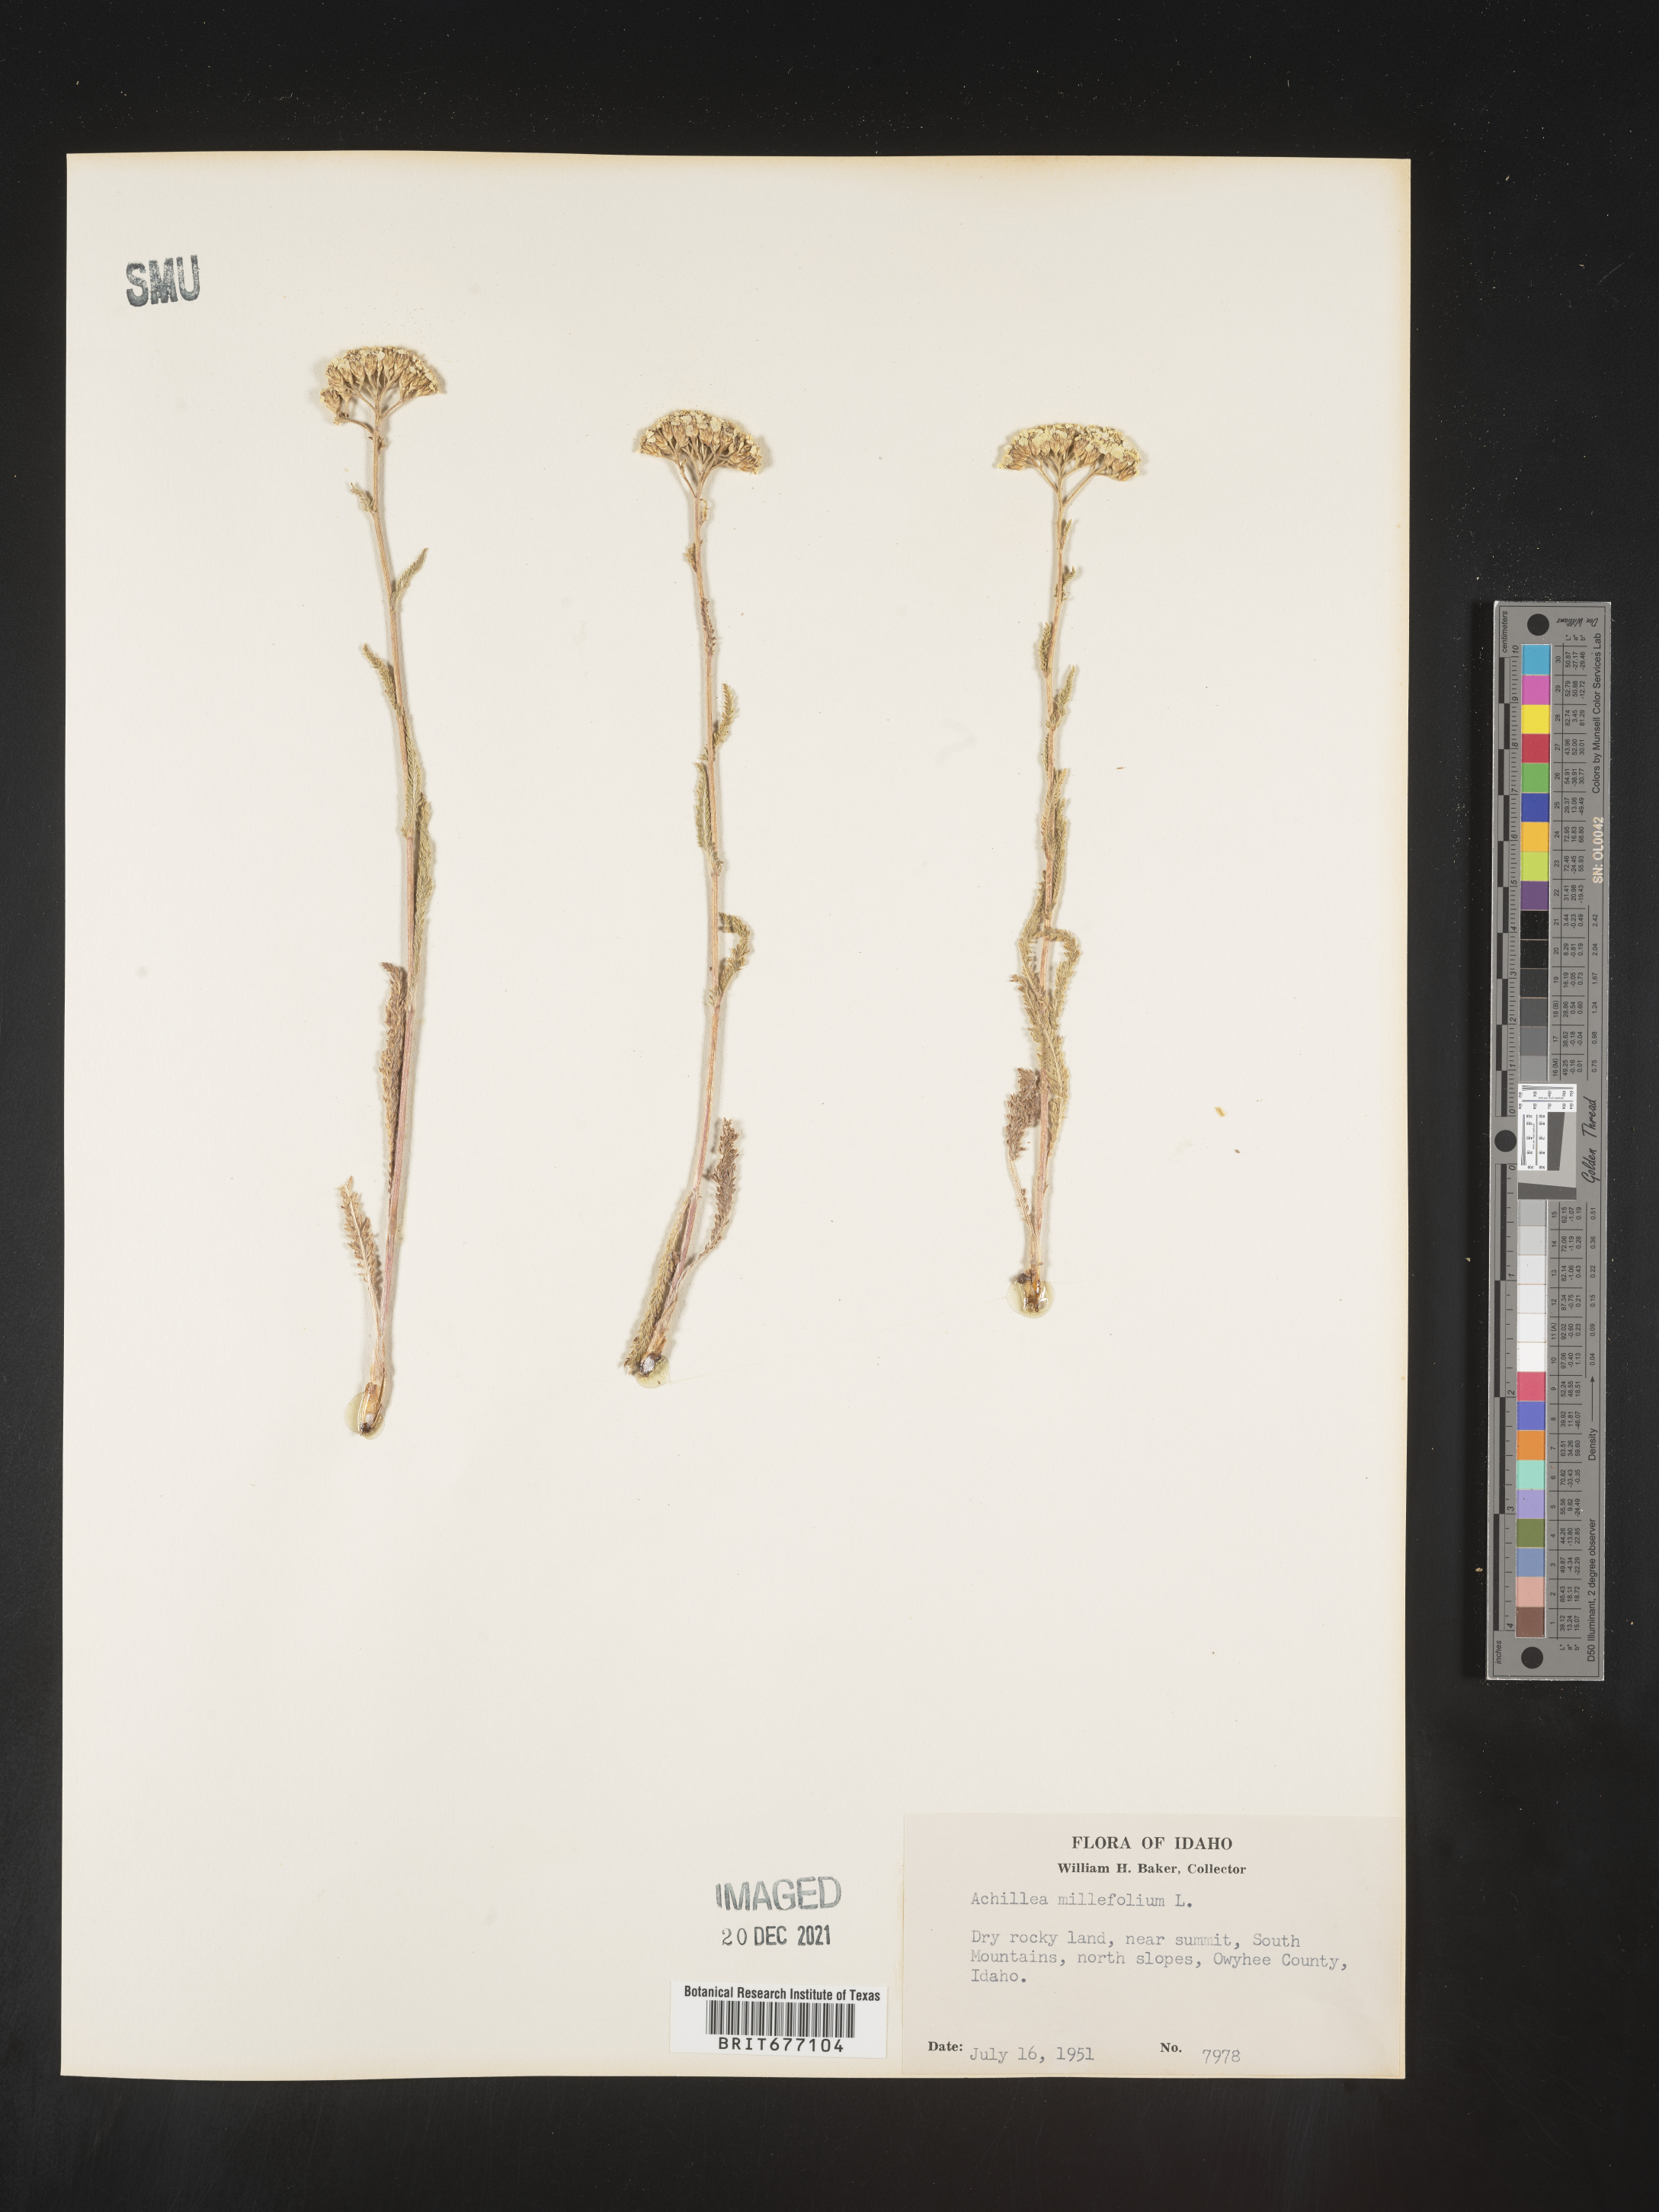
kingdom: Plantae
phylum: Tracheophyta
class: Magnoliopsida
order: Asterales
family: Asteraceae
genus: Achillea
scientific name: Achillea millefolium
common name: Yarrow
